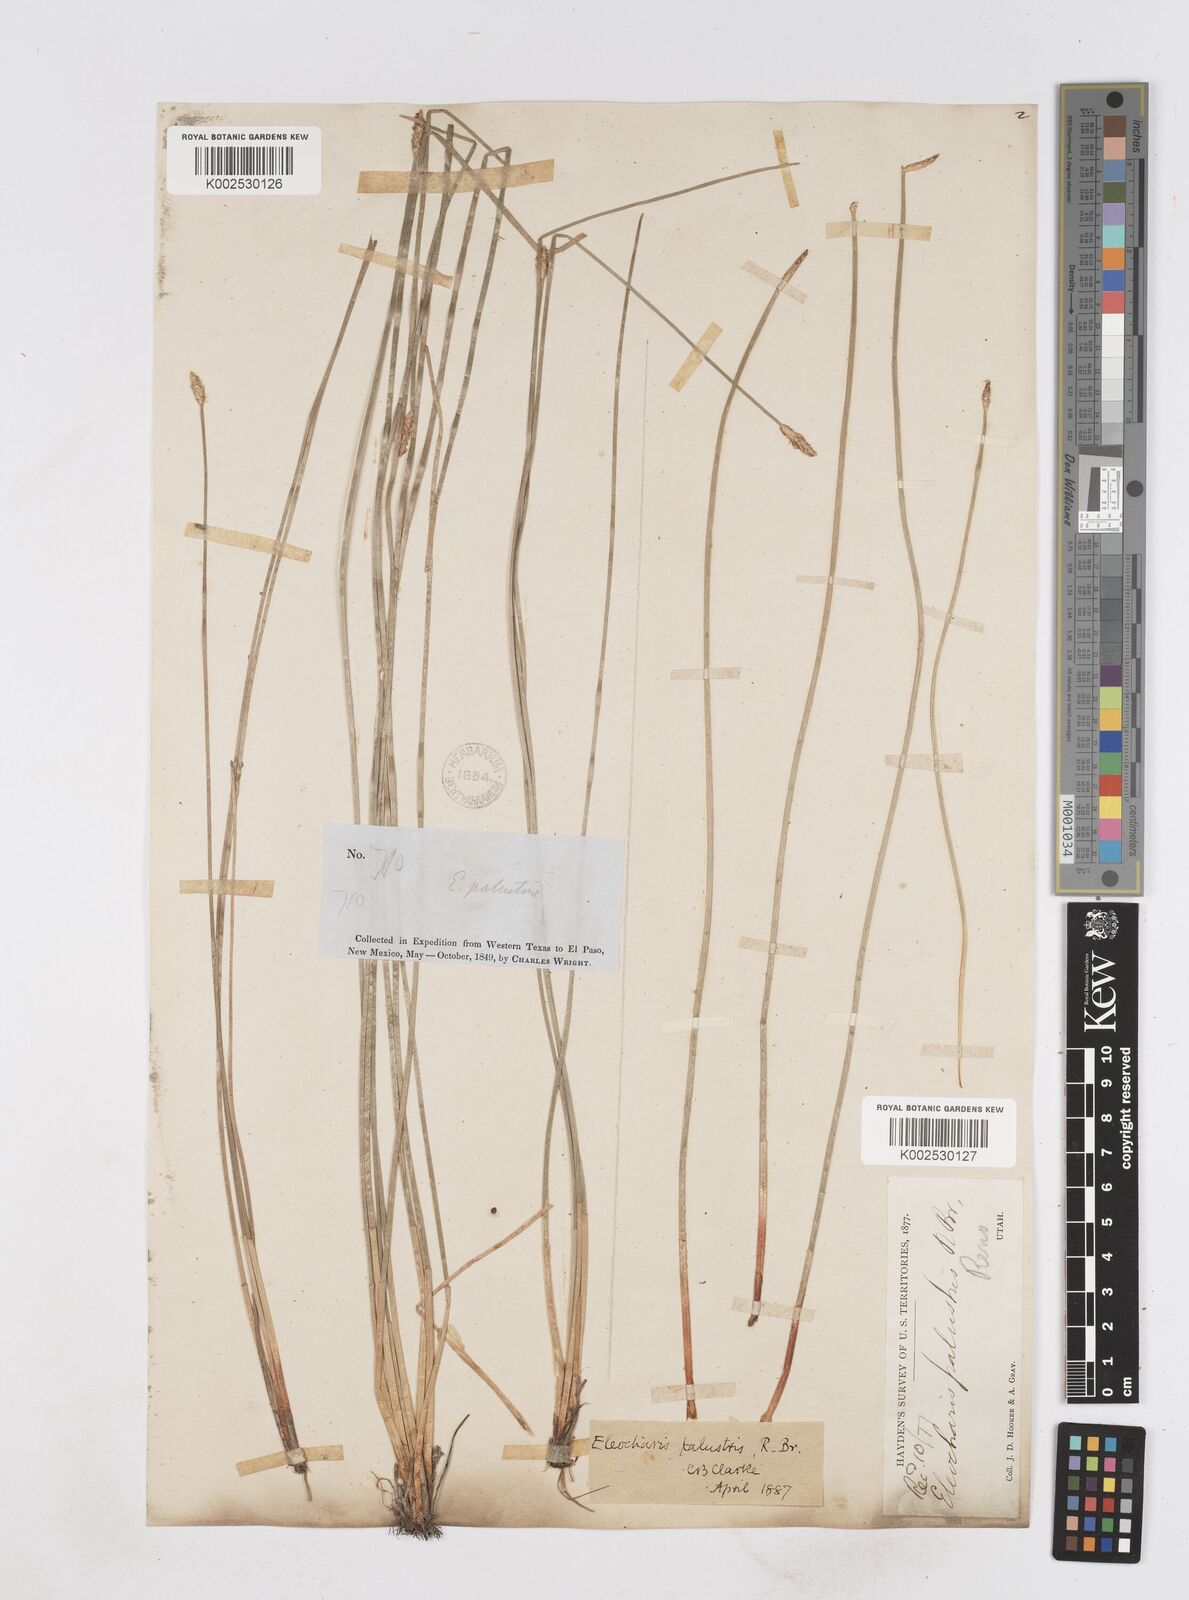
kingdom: Plantae
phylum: Tracheophyta
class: Liliopsida
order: Poales
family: Cyperaceae
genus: Eleocharis
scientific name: Eleocharis macrostachya
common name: Pale spikerush
